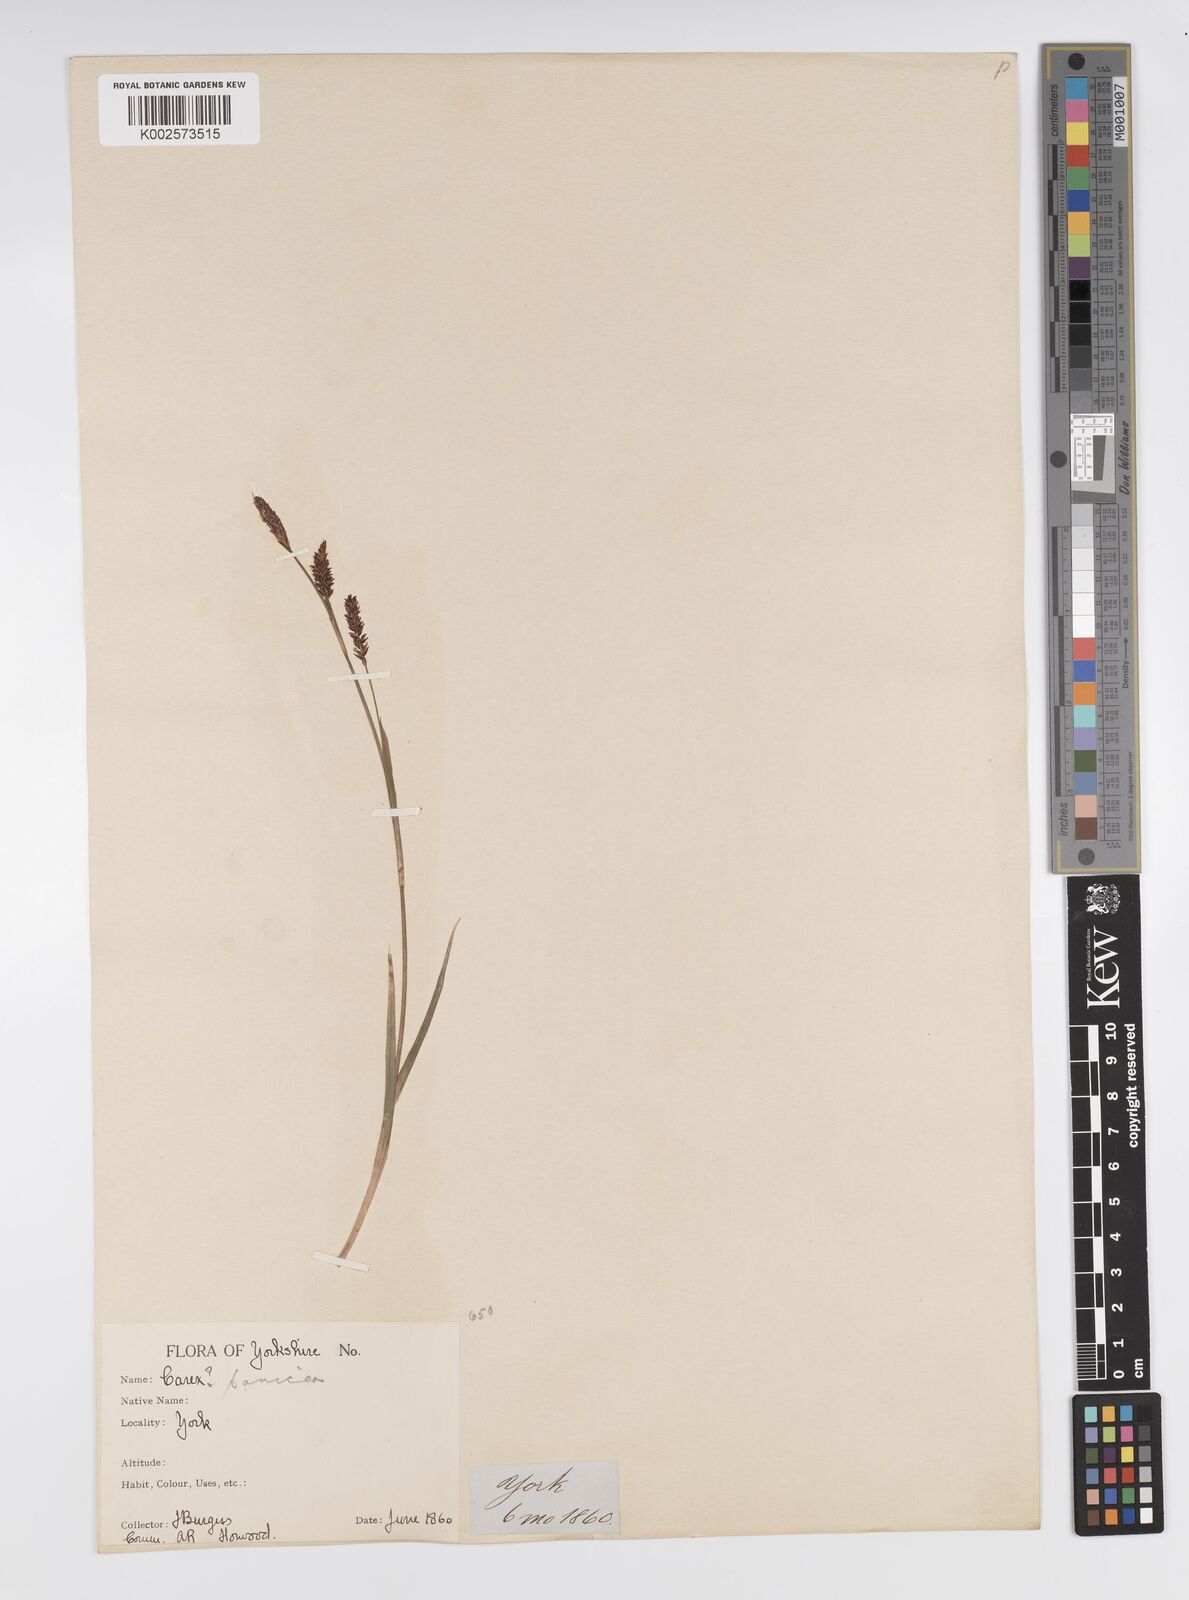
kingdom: Plantae
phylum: Tracheophyta
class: Liliopsida
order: Poales
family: Cyperaceae
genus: Carex
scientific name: Carex panicea
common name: Carnation sedge
